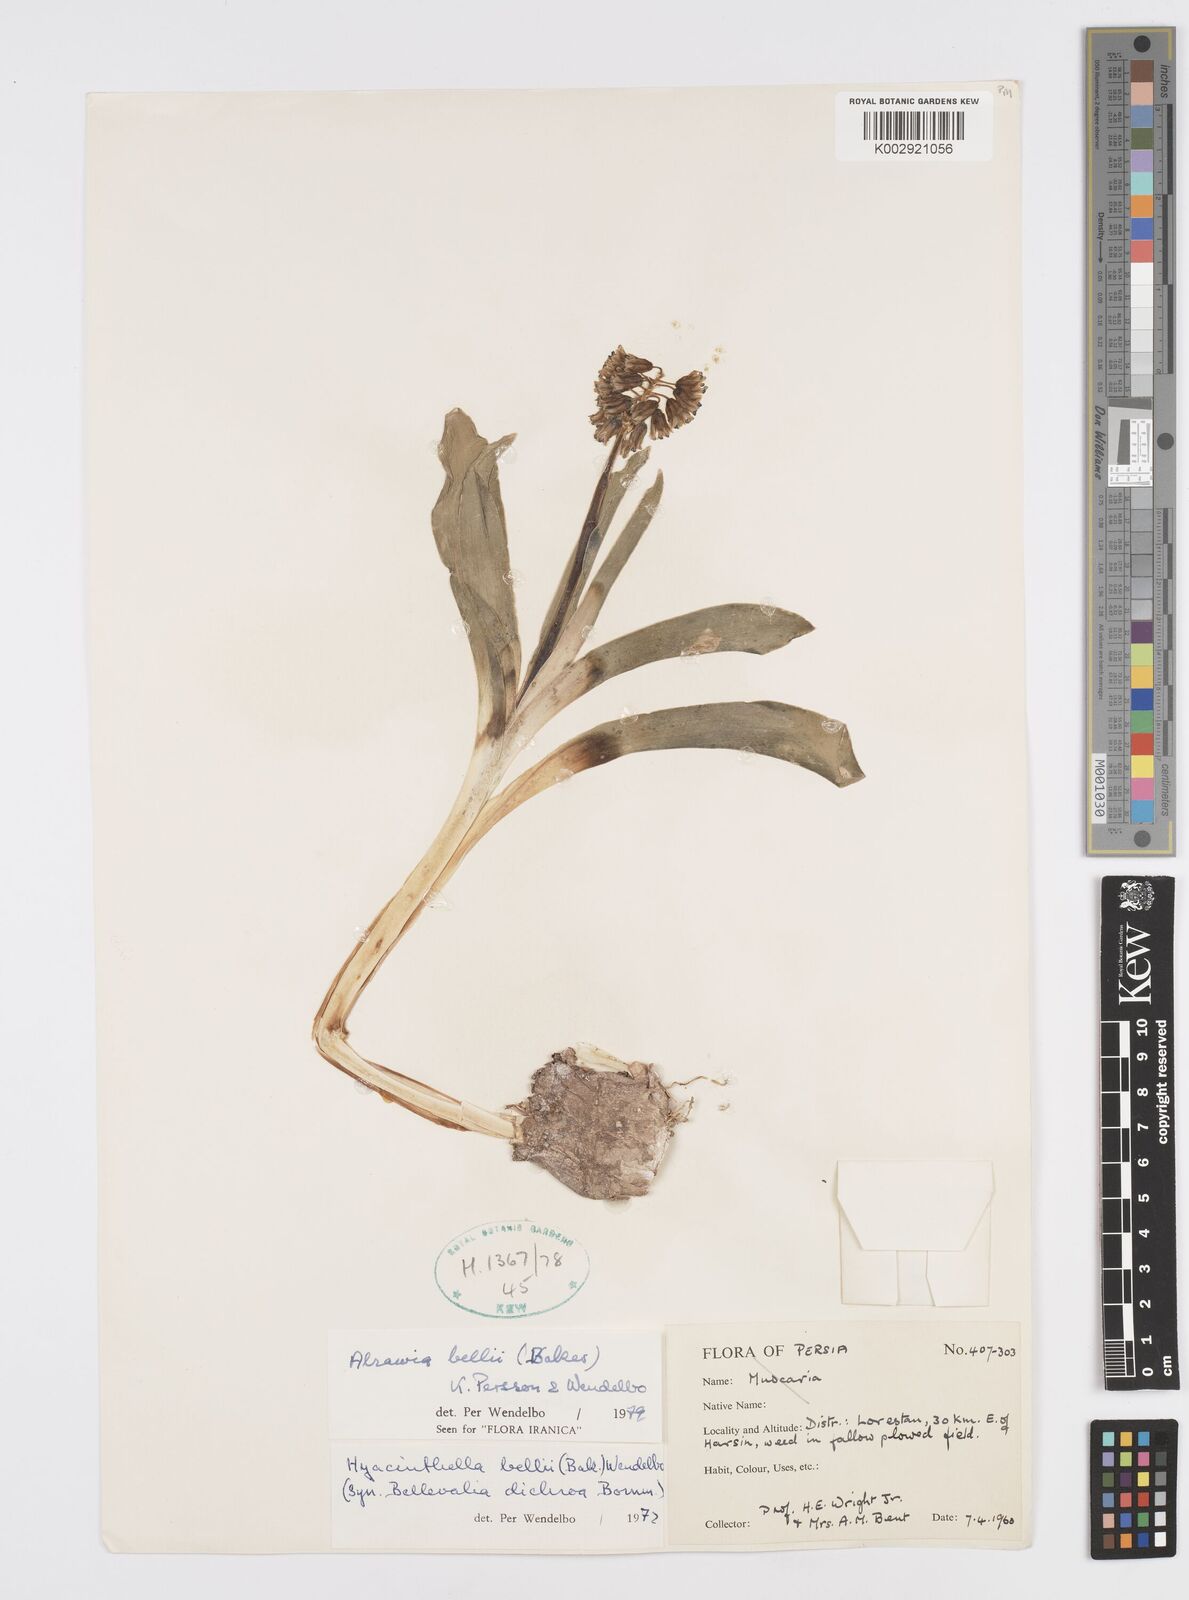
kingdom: Plantae
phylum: Tracheophyta
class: Liliopsida
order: Asparagales
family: Asparagaceae
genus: Alrawia
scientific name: Alrawia bellii
